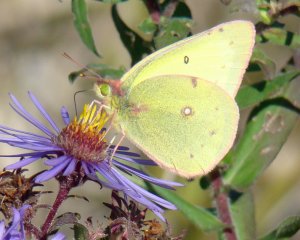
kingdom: Animalia
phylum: Arthropoda
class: Insecta
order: Lepidoptera
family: Pieridae
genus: Colias
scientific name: Colias philodice
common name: Clouded Sulphur
